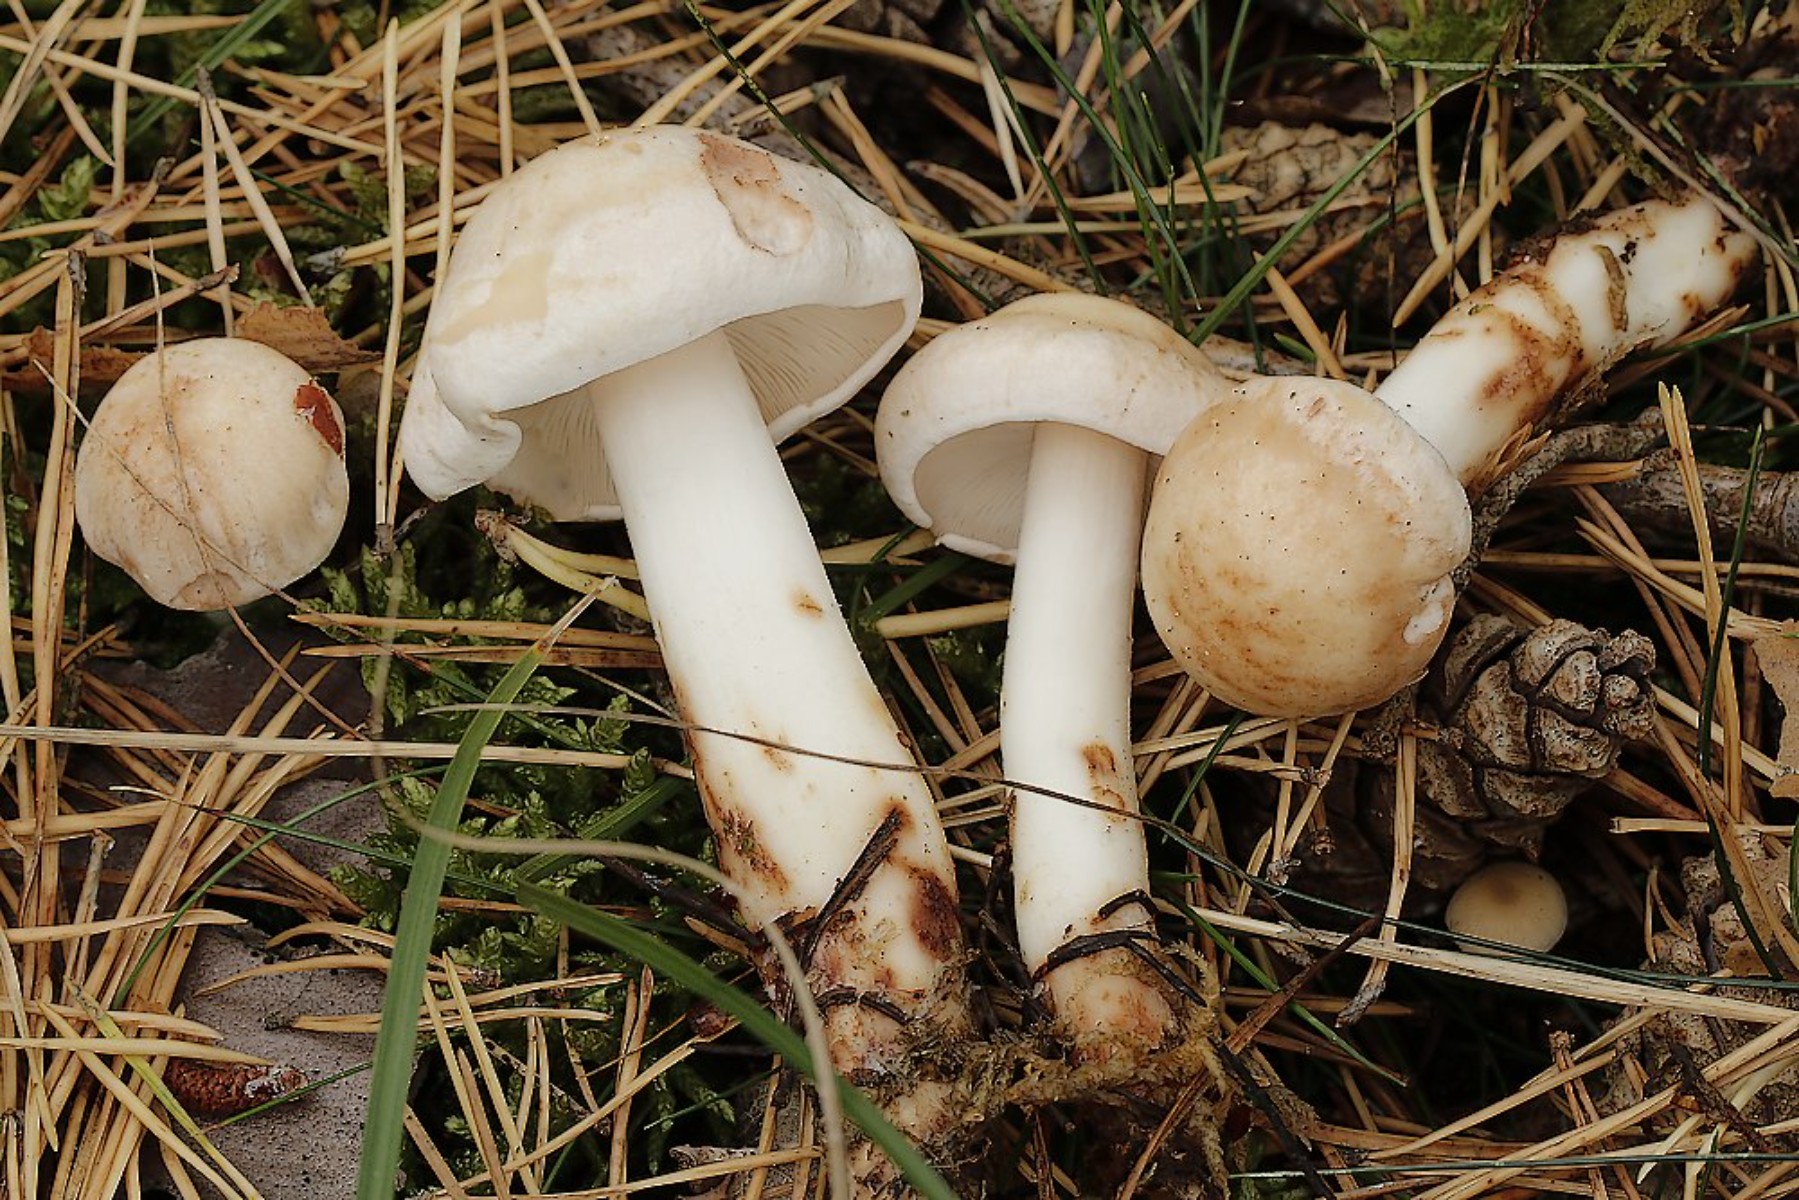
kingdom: Fungi
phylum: Basidiomycota
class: Agaricomycetes
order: Agaricales
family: Omphalotaceae
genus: Rhodocollybia
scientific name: Rhodocollybia maculata
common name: plettet fladhat
